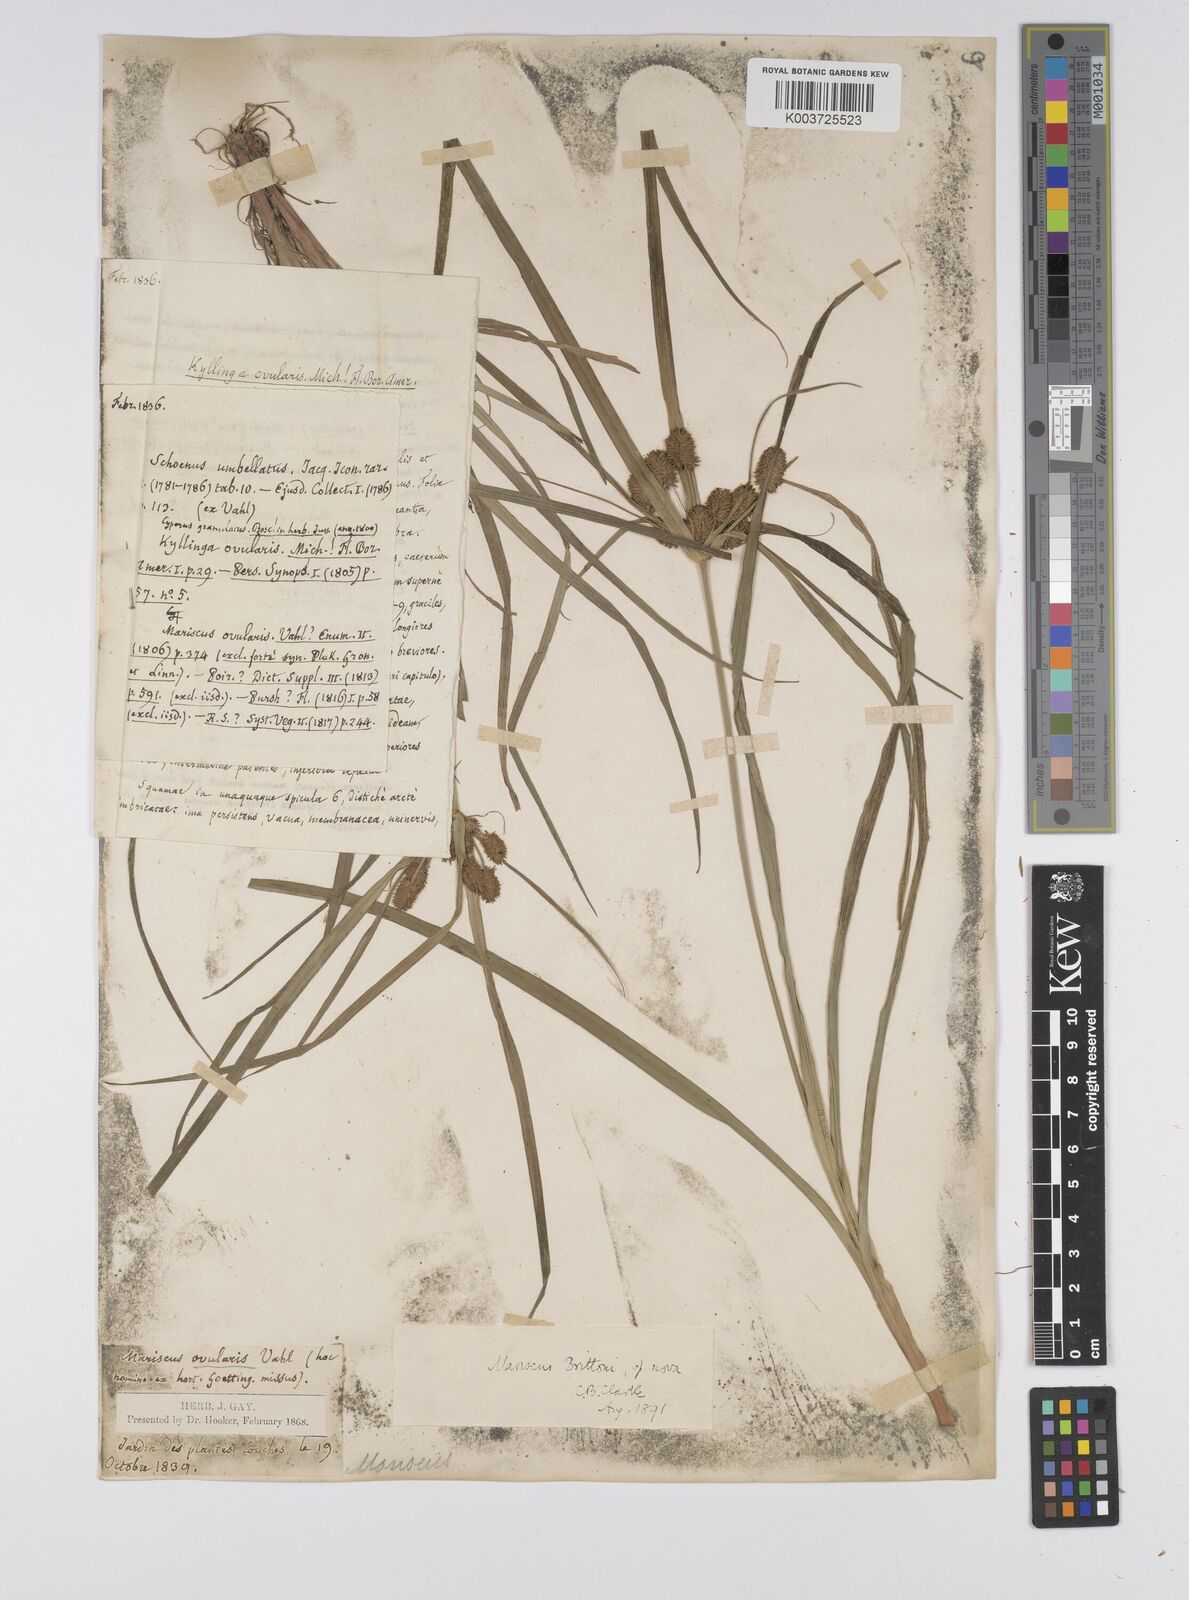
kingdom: Plantae
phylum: Tracheophyta
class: Liliopsida
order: Poales
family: Cyperaceae
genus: Cyperus
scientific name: Cyperus retrorsus
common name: Pinebarren flat sedge
